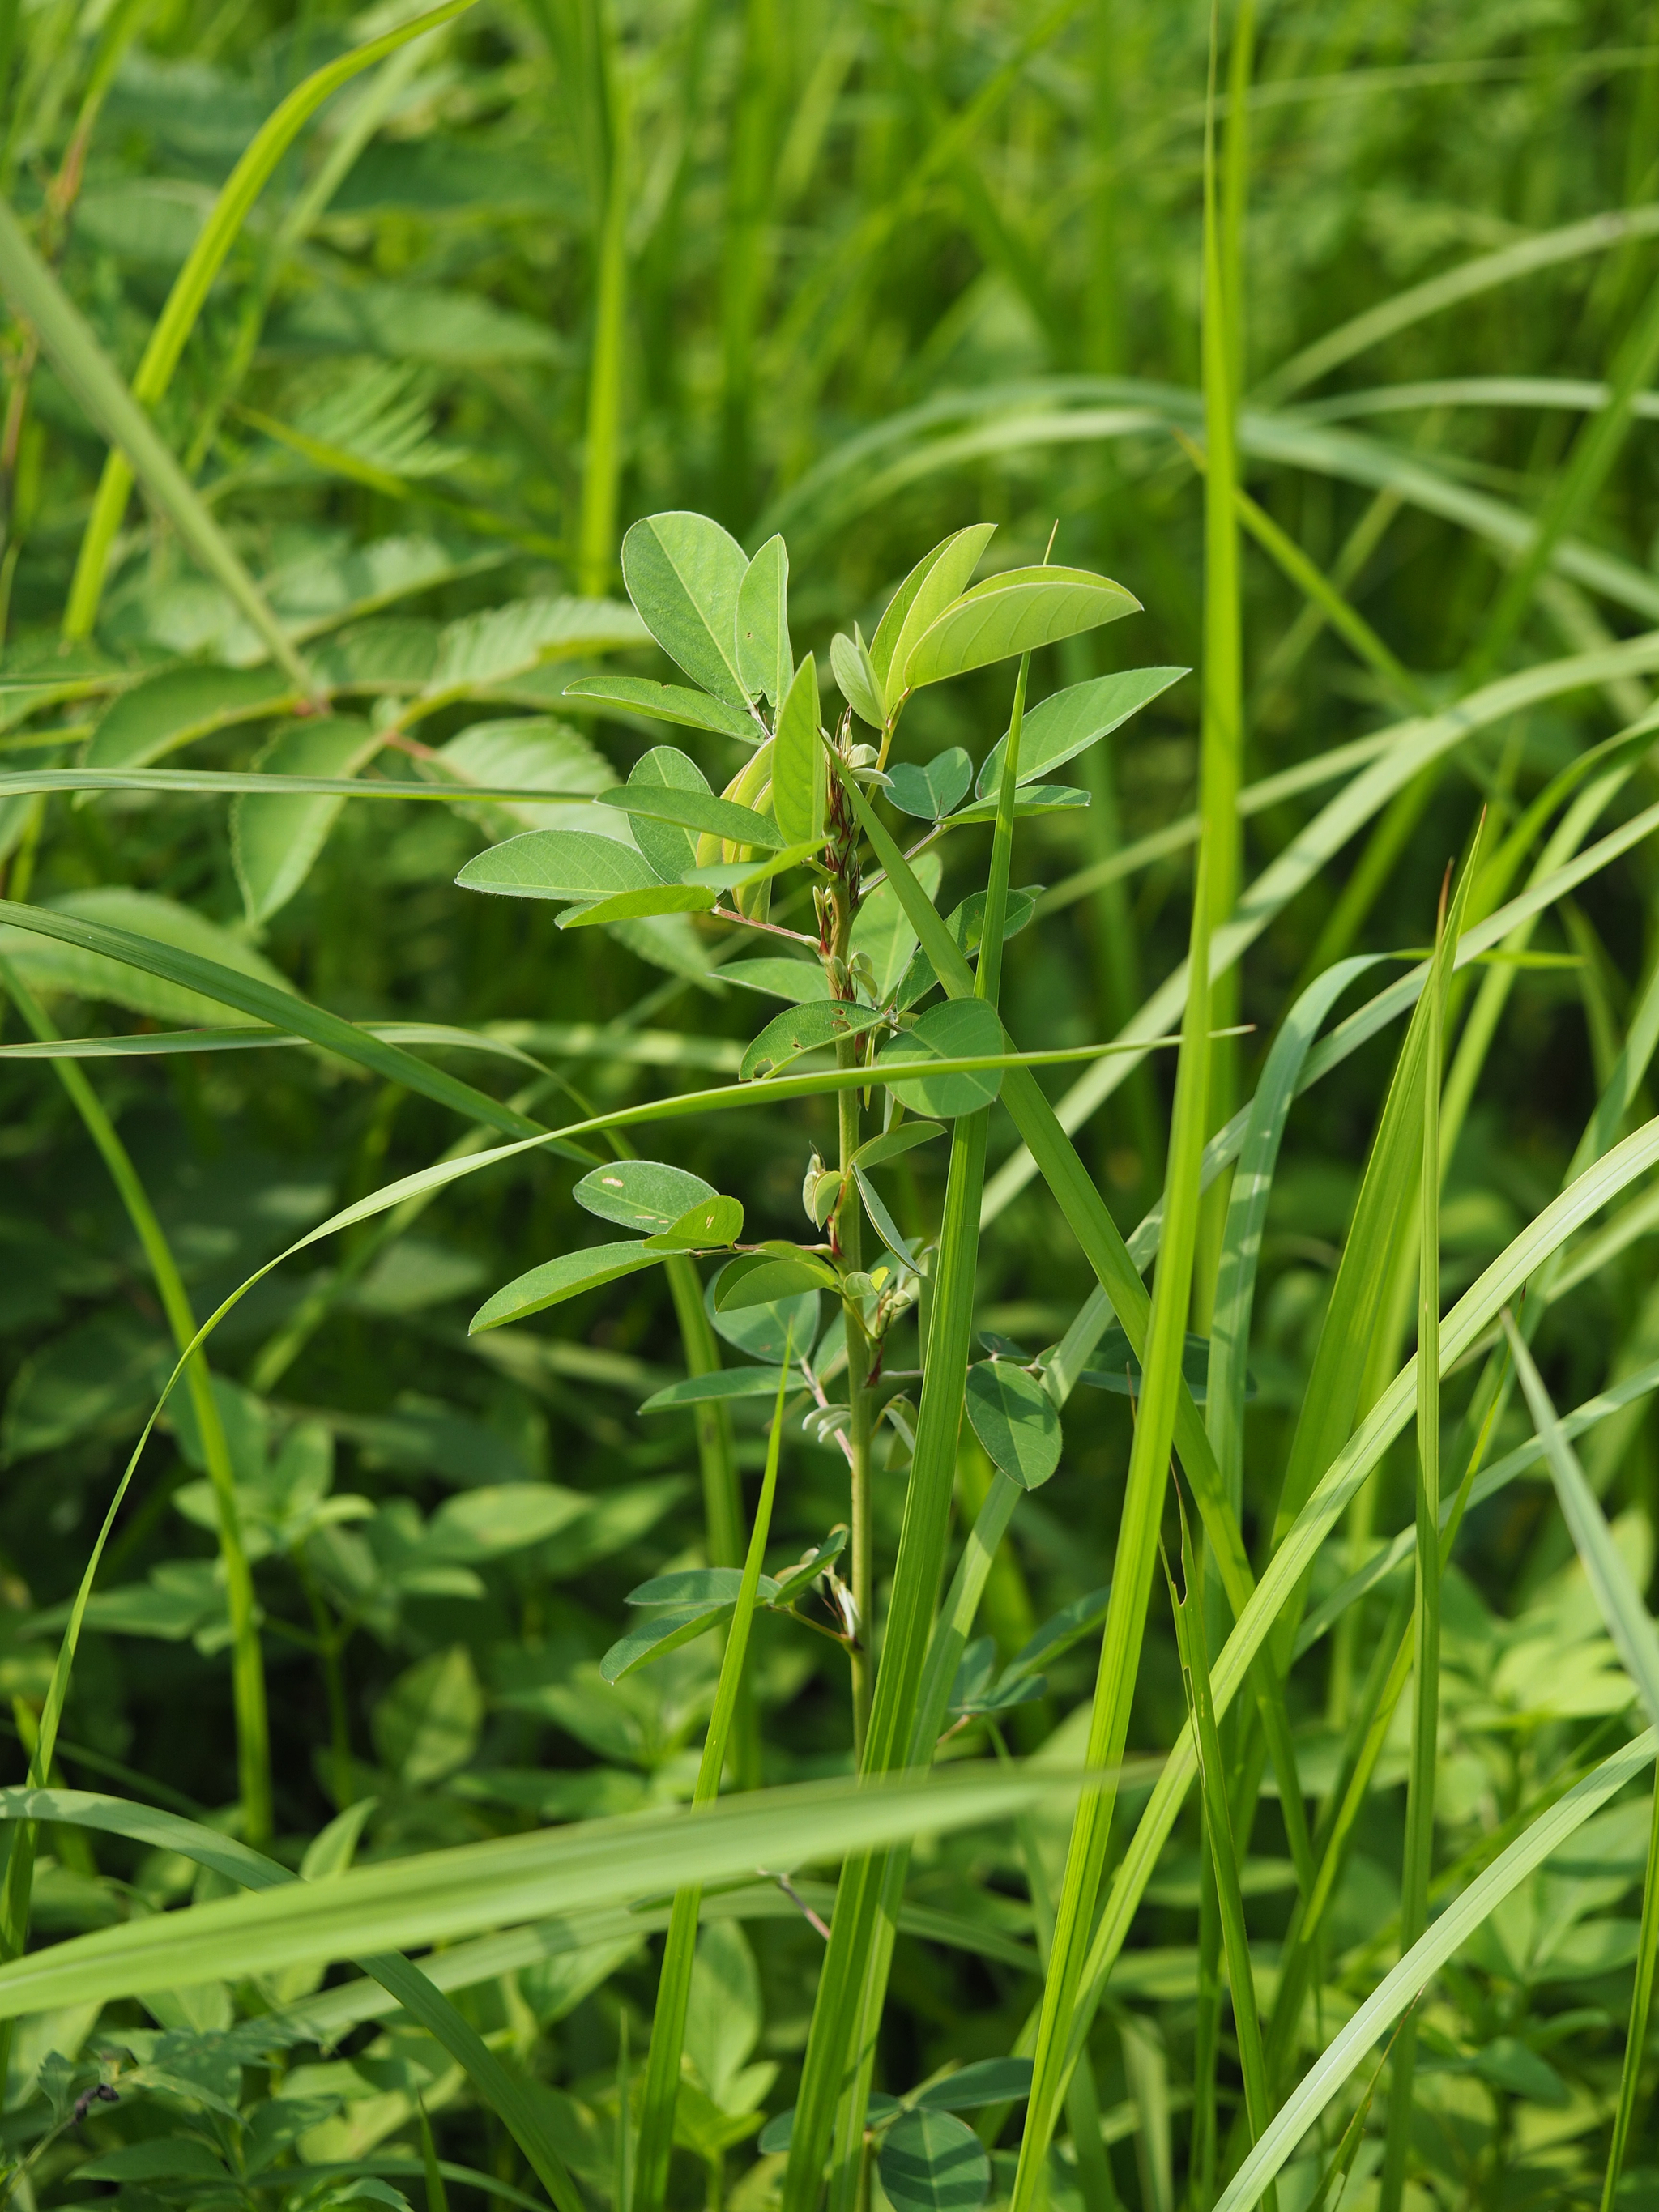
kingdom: Plantae
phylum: Tracheophyta
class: Magnoliopsida
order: Fabales
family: Fabaceae
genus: Grona
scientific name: Grona heterocarpos
